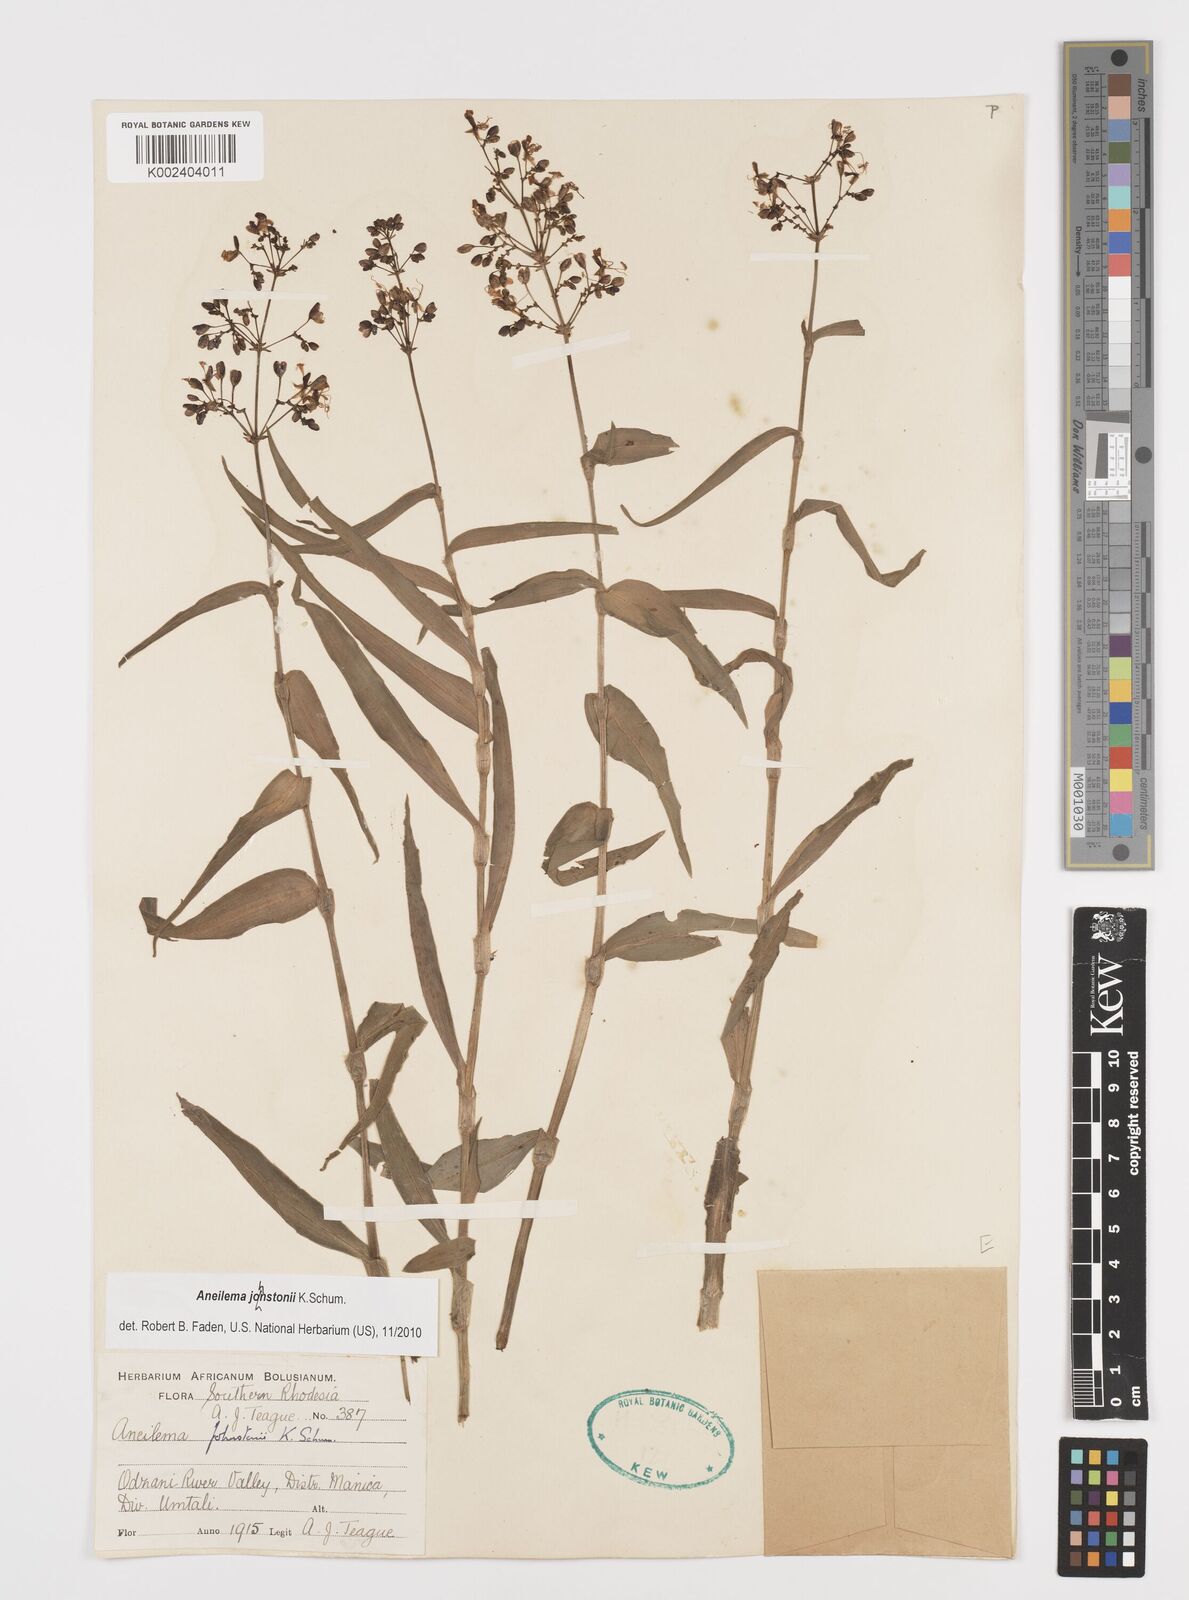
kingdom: Plantae
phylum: Tracheophyta
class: Liliopsida
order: Commelinales
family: Commelinaceae
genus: Aneilema
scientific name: Aneilema johnstonii
